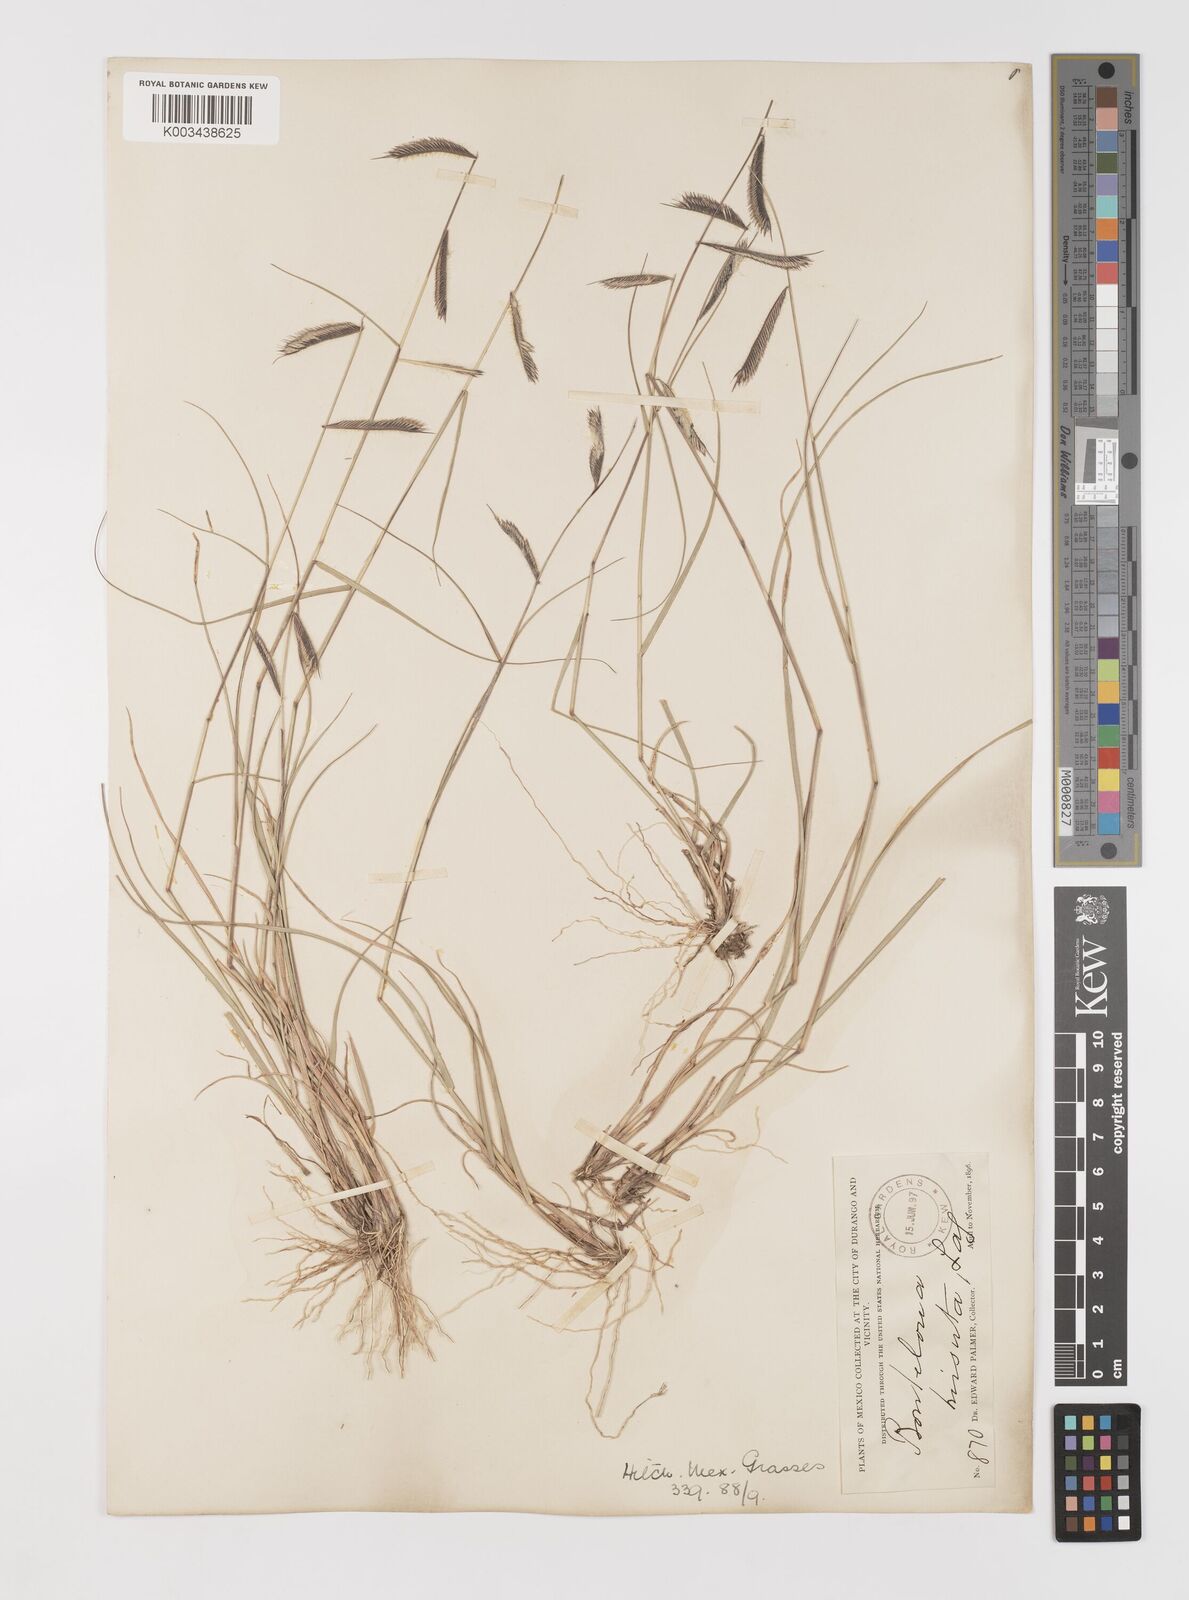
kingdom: Plantae
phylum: Tracheophyta
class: Liliopsida
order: Poales
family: Poaceae
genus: Bouteloua
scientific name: Bouteloua hirsuta
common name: Hairy grama
